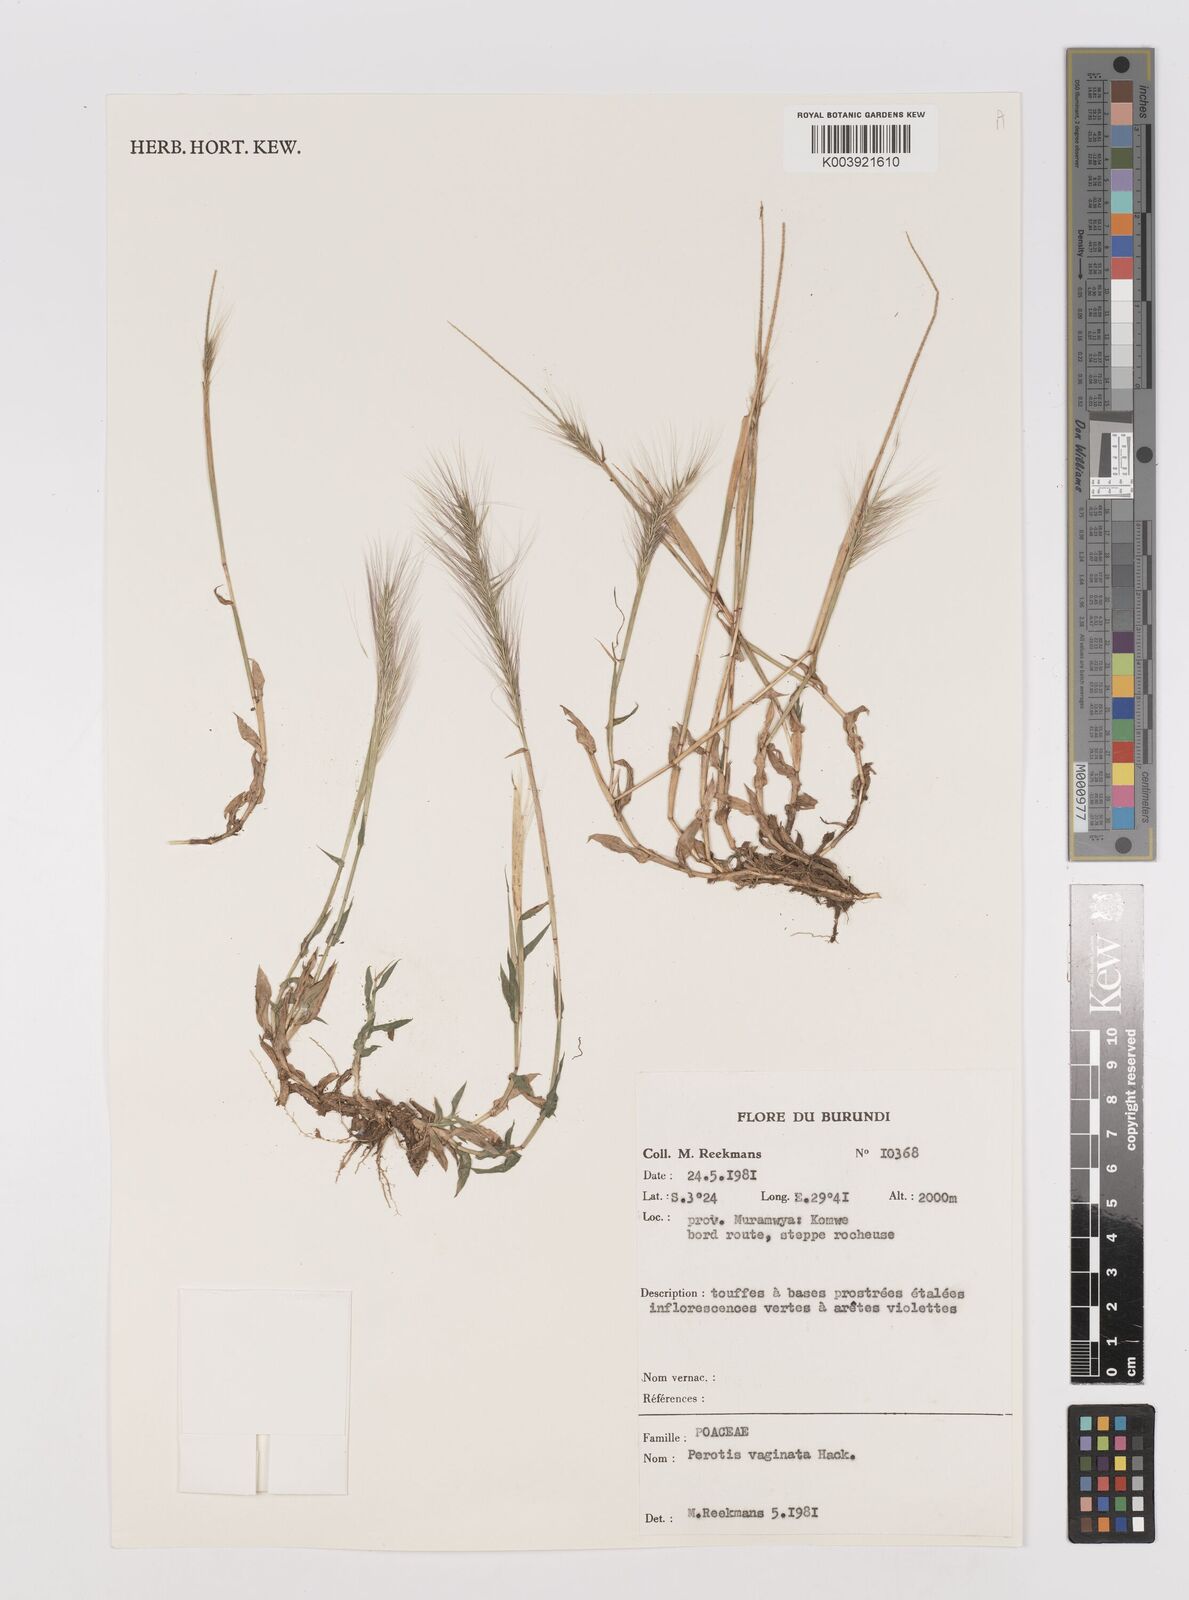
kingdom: Plantae
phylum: Tracheophyta
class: Liliopsida
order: Poales
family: Poaceae
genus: Perotis
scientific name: Perotis vaginata
